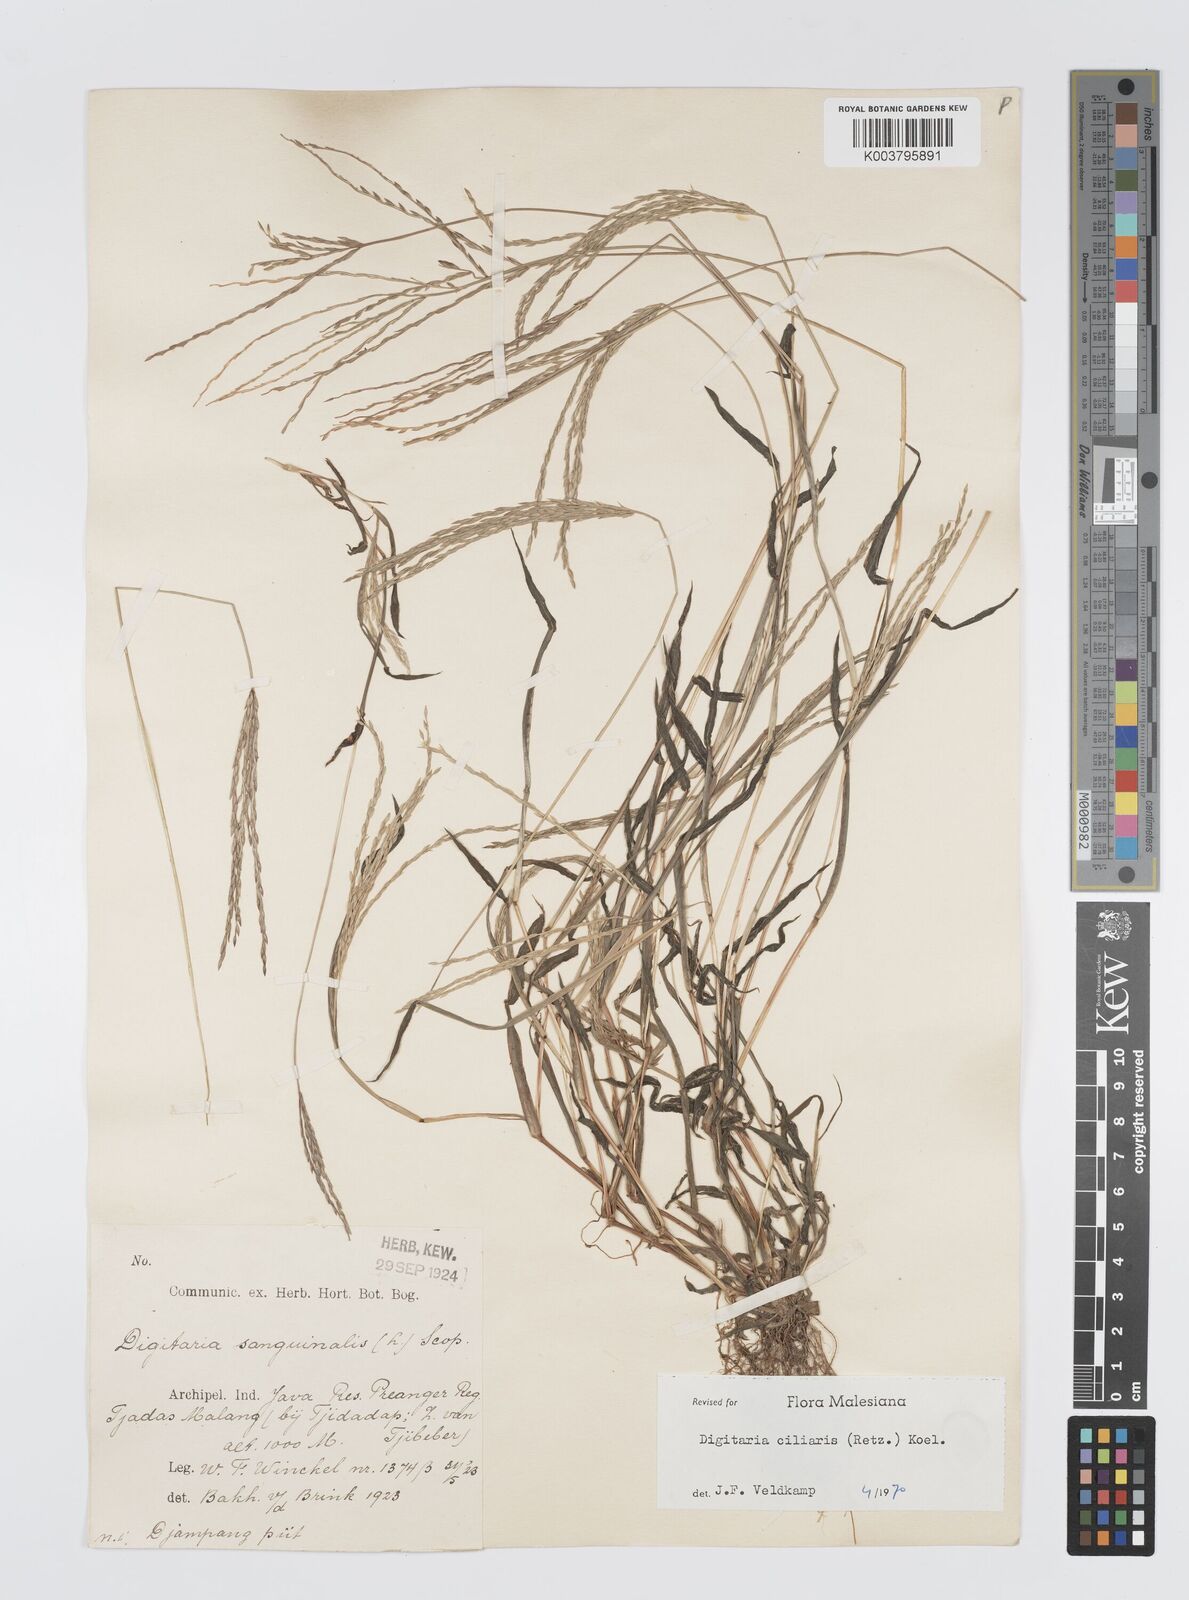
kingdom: Plantae
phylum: Tracheophyta
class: Liliopsida
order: Poales
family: Poaceae
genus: Digitaria
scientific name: Digitaria ciliaris
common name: Tropical finger-grass
